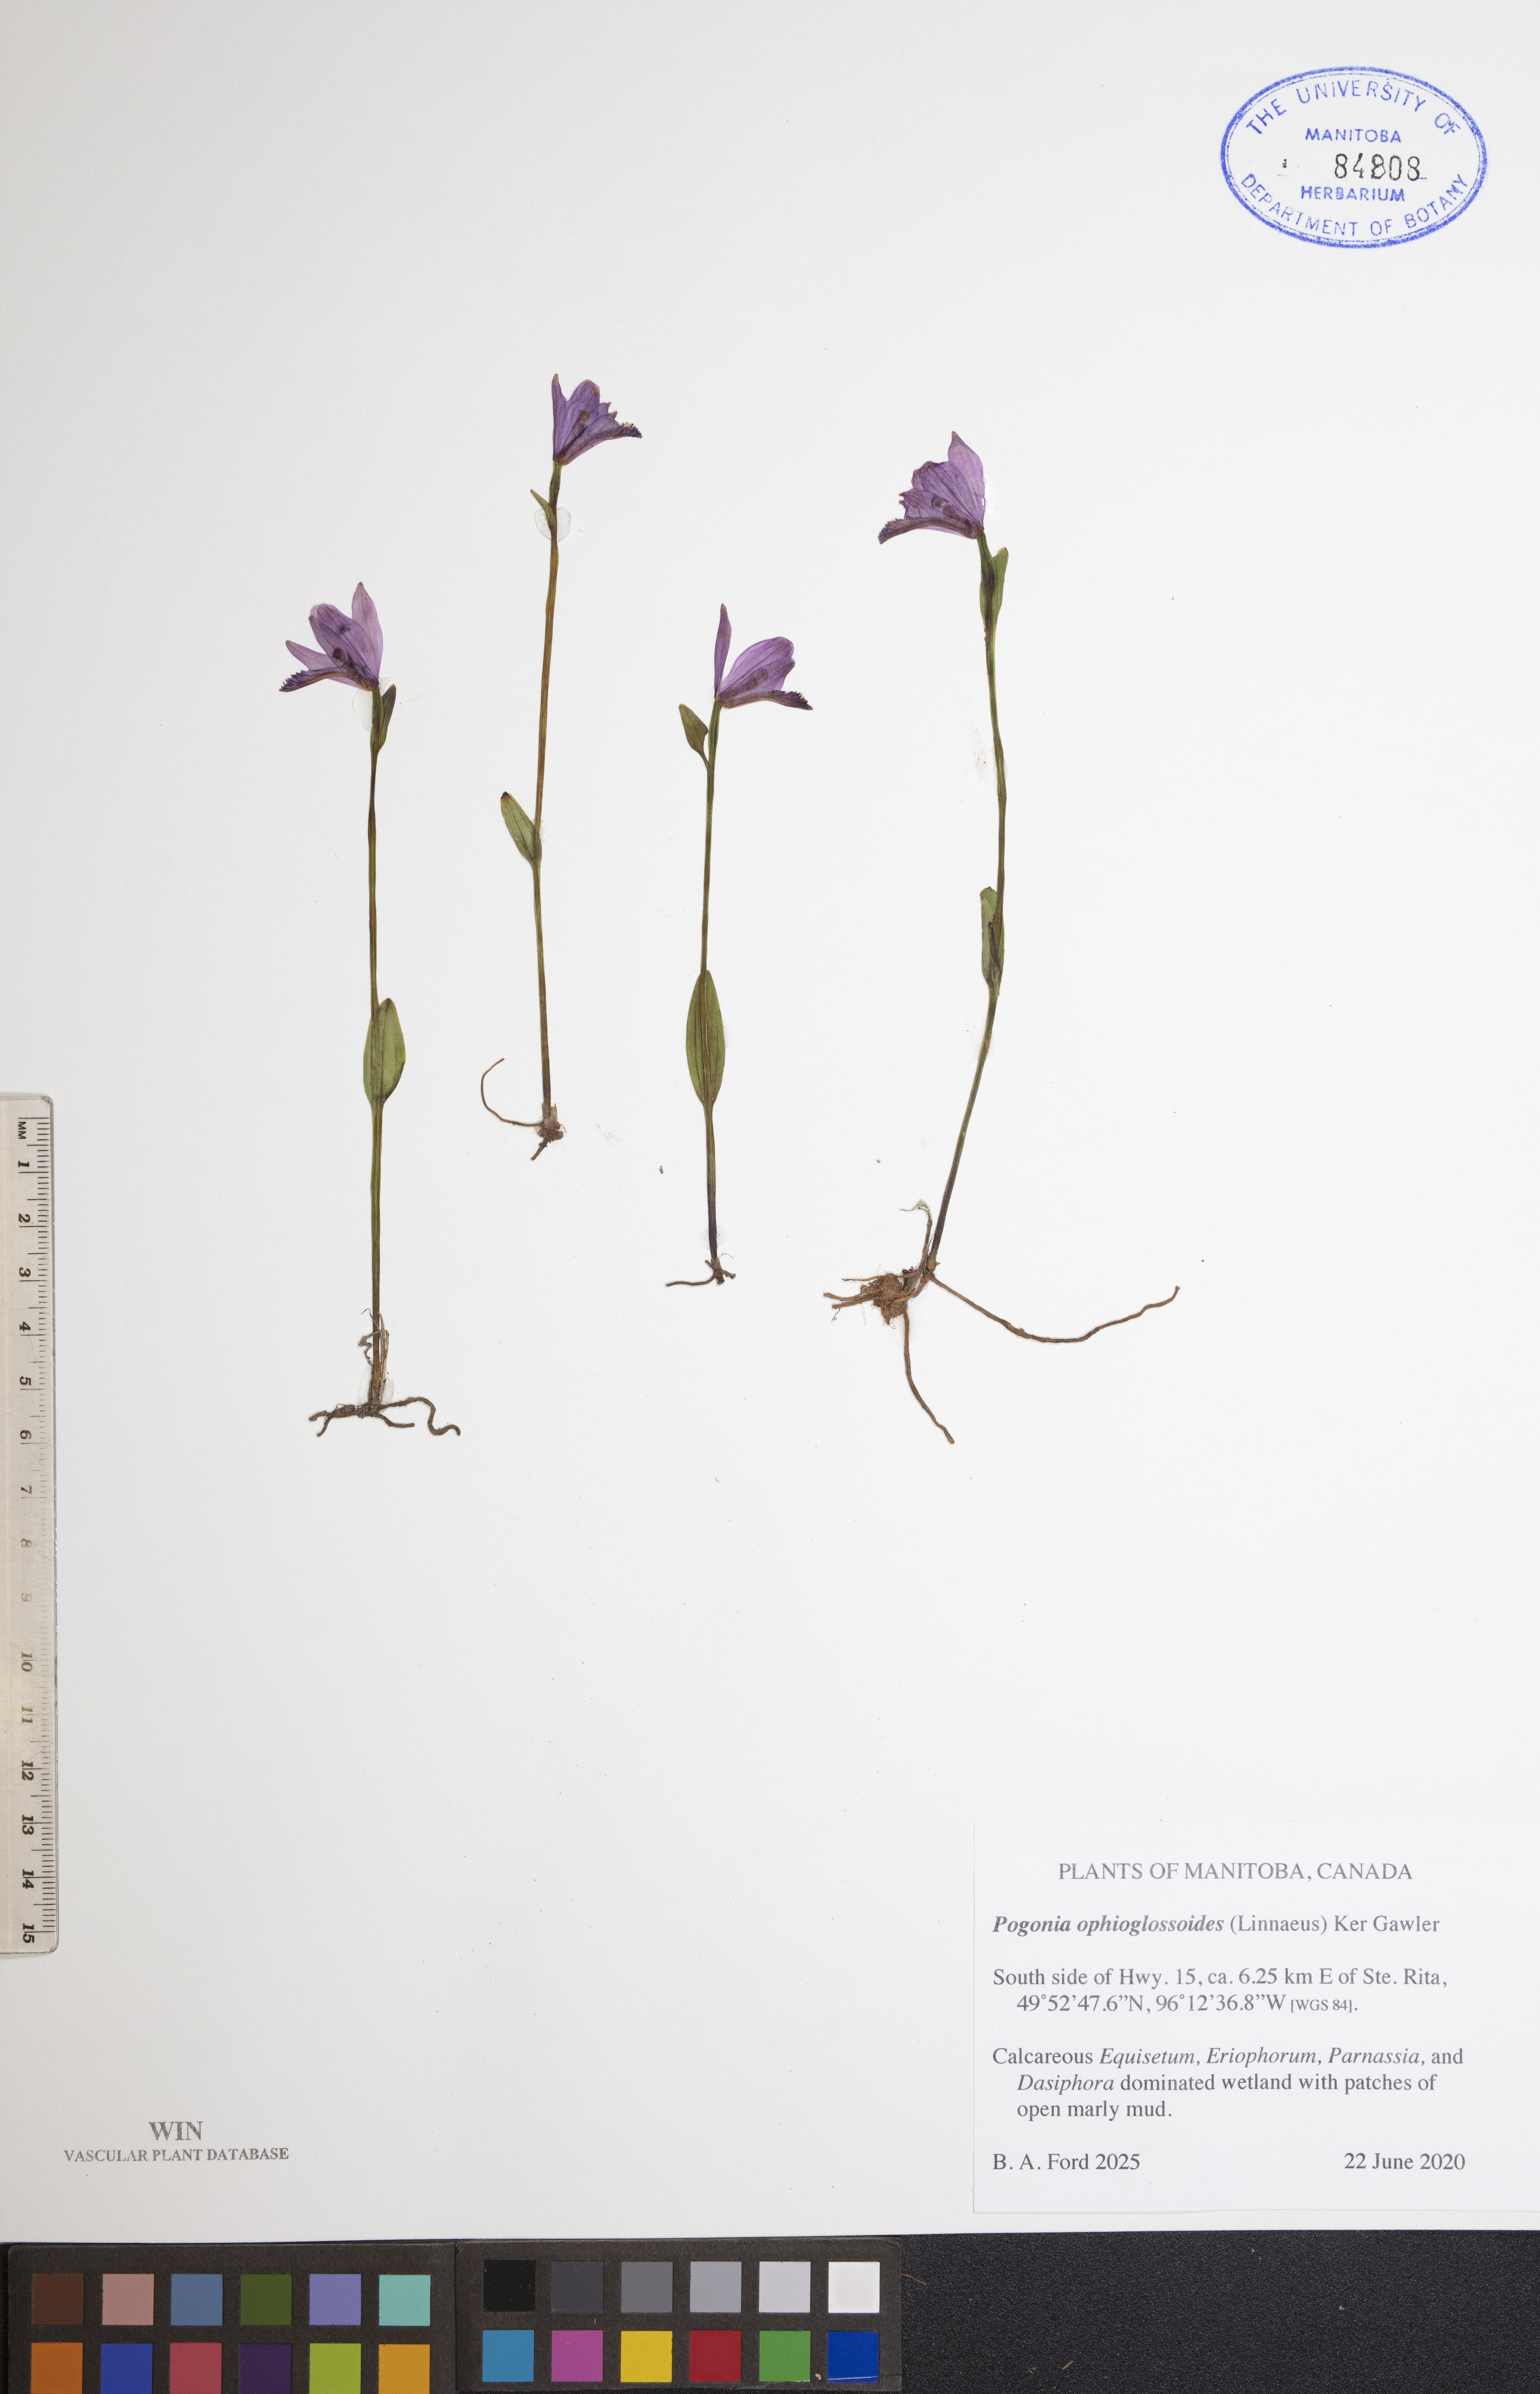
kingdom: Plantae
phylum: Tracheophyta
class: Liliopsida
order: Asparagales
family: Orchidaceae
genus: Pogonia
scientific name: Pogonia ophioglossoides
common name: Rose pogonia
